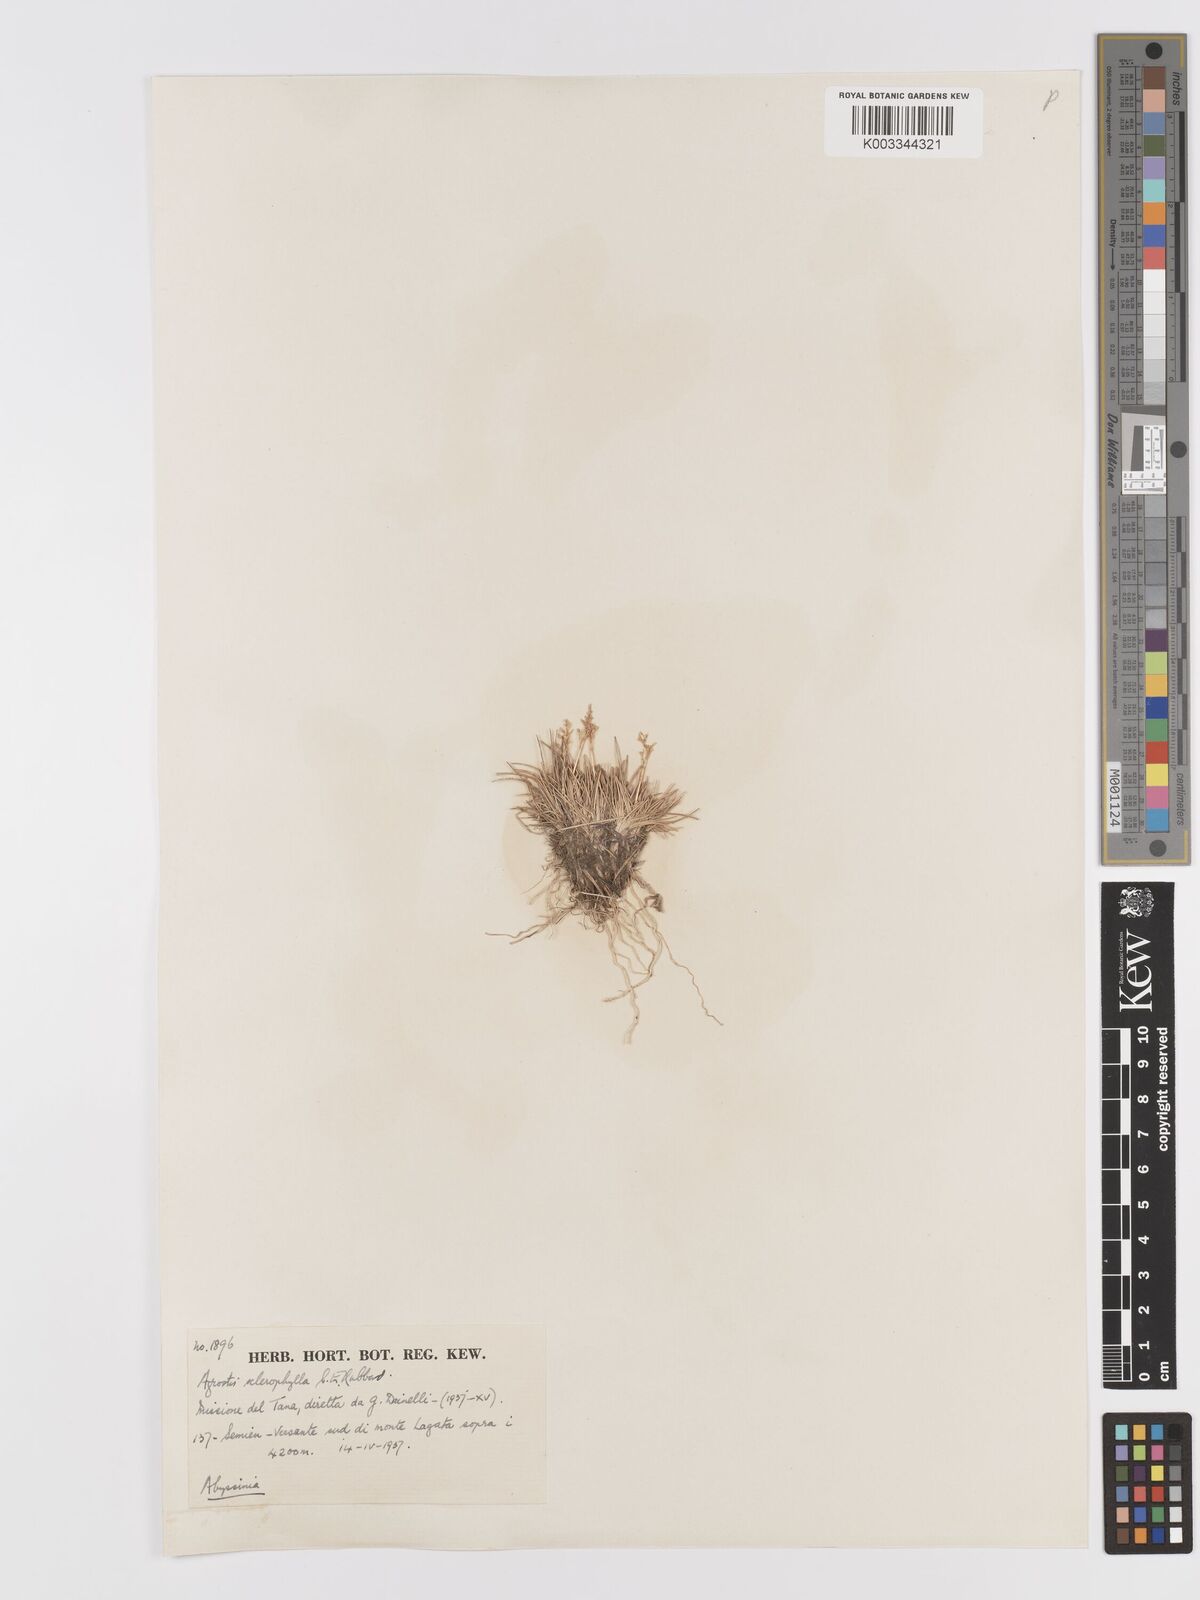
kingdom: Plantae
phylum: Tracheophyta
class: Liliopsida
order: Poales
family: Poaceae
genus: Agrostis
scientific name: Agrostis sclerophylla
